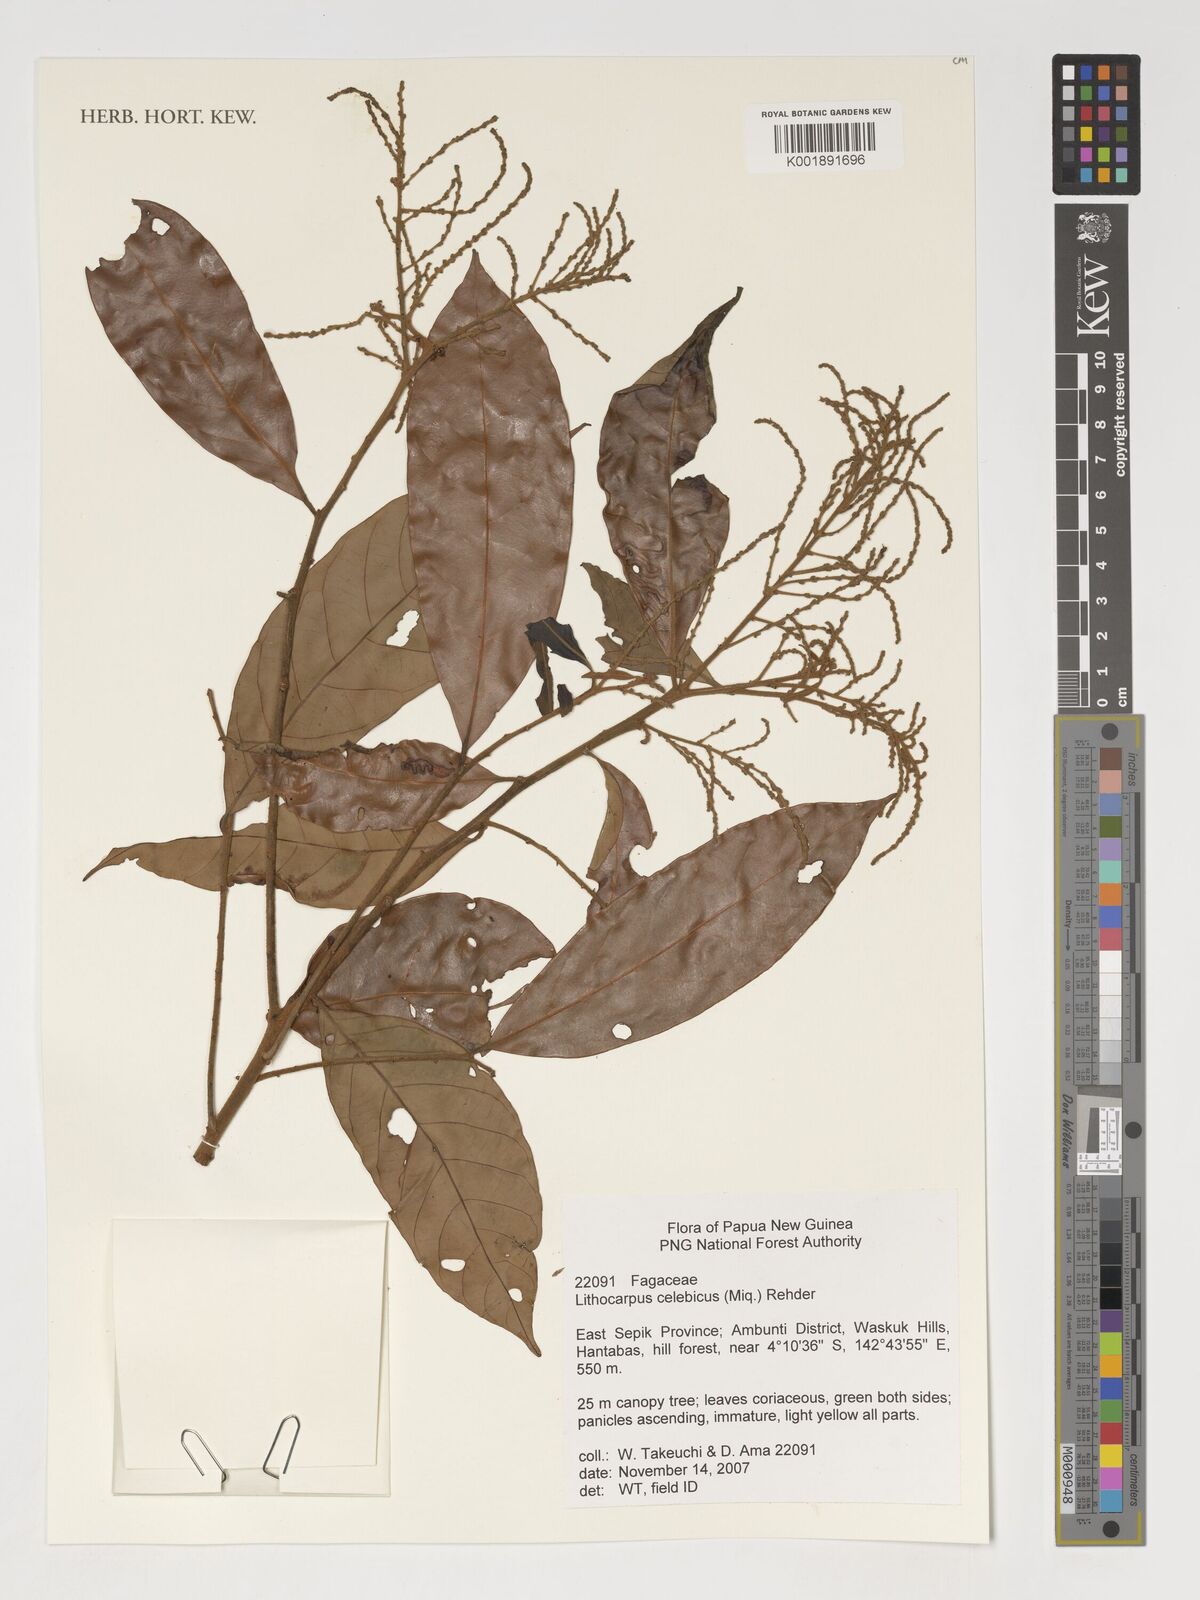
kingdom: Plantae
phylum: Tracheophyta
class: Magnoliopsida
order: Fagales
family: Fagaceae
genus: Lithocarpus
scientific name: Lithocarpus celebicus
